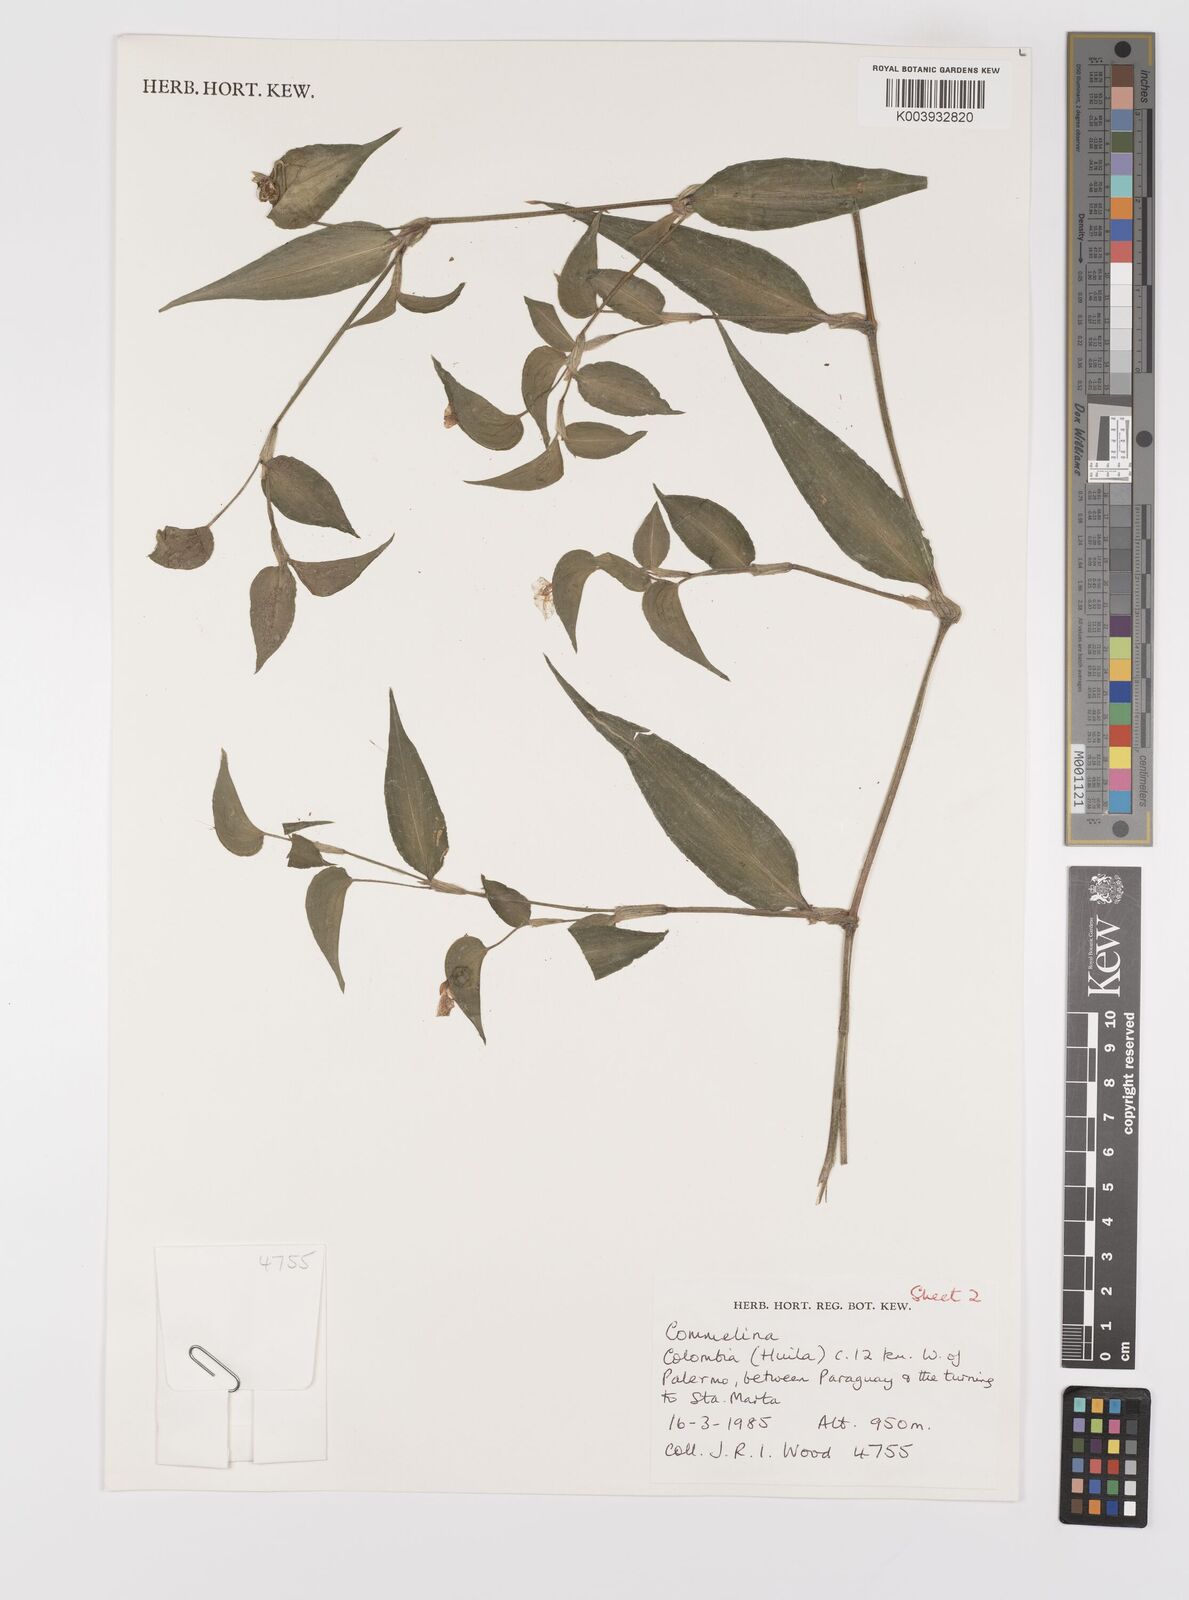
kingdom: Plantae
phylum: Tracheophyta
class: Liliopsida
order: Commelinales
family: Commelinaceae
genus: Commelina
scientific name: Commelina
